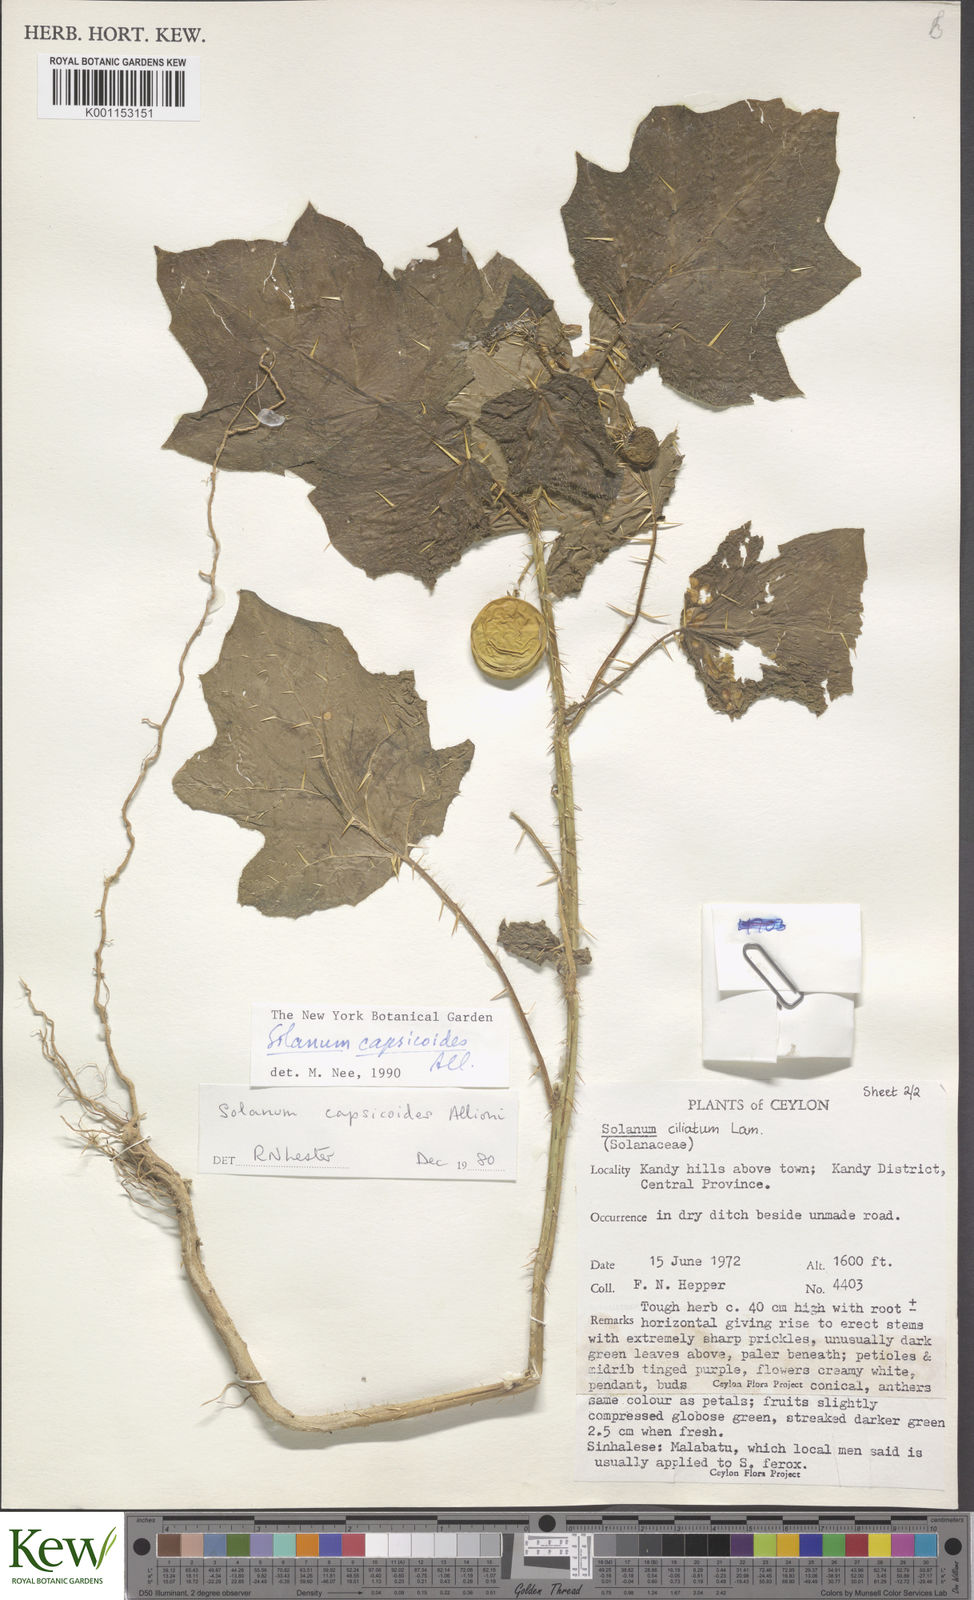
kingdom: Plantae
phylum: Tracheophyta
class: Magnoliopsida
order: Solanales
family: Solanaceae
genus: Solanum
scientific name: Solanum capsicoides
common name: Cockroach berry
